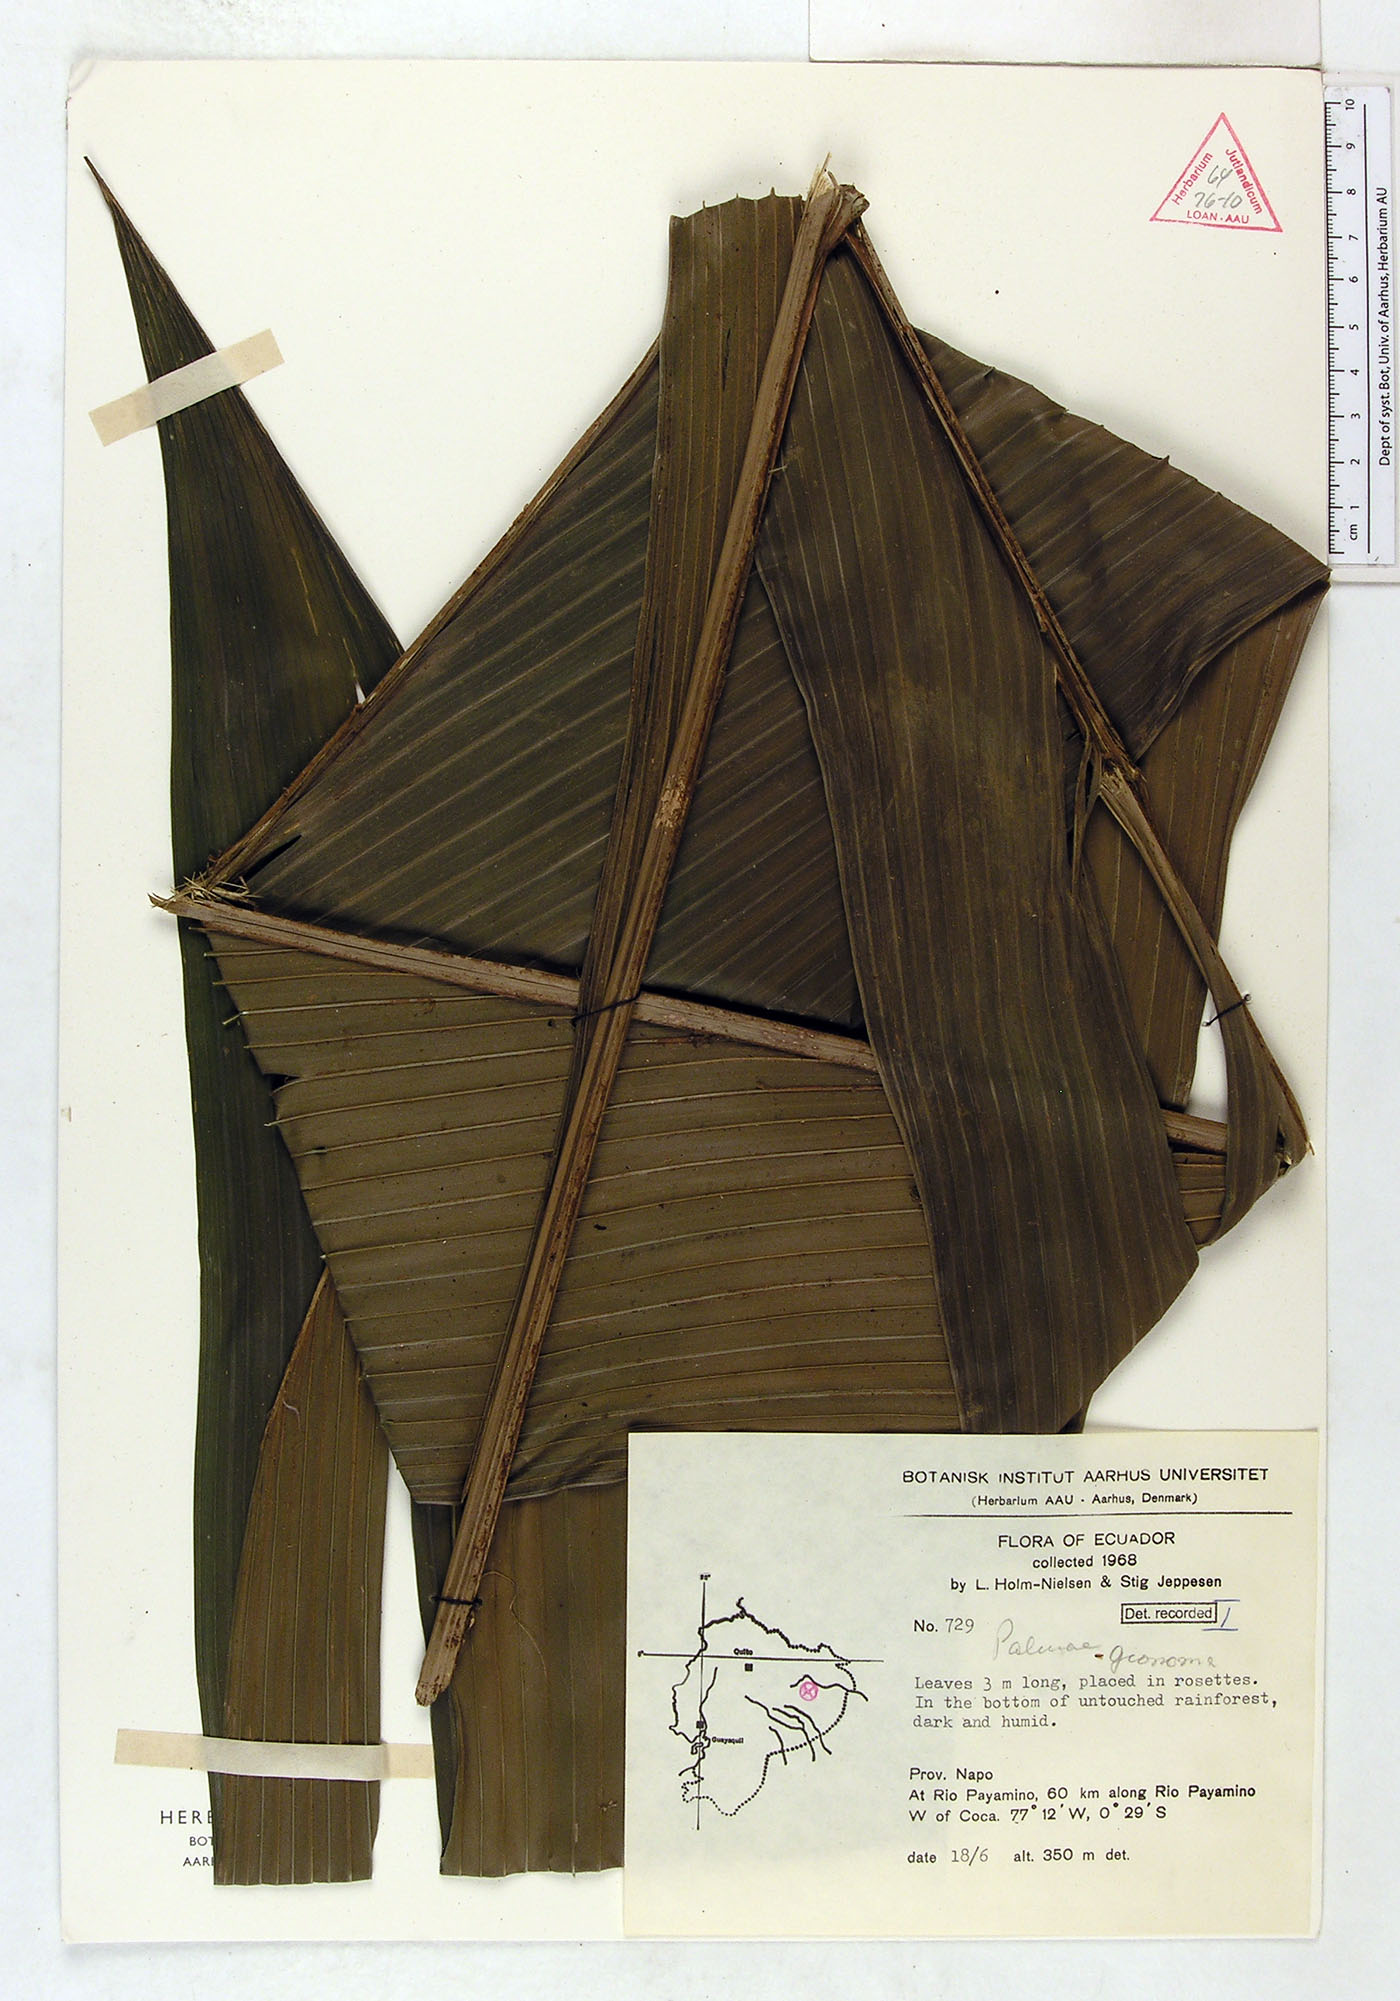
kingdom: Plantae
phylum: Tracheophyta
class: Liliopsida
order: Arecales
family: Arecaceae
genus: Geonoma
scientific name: Geonoma
